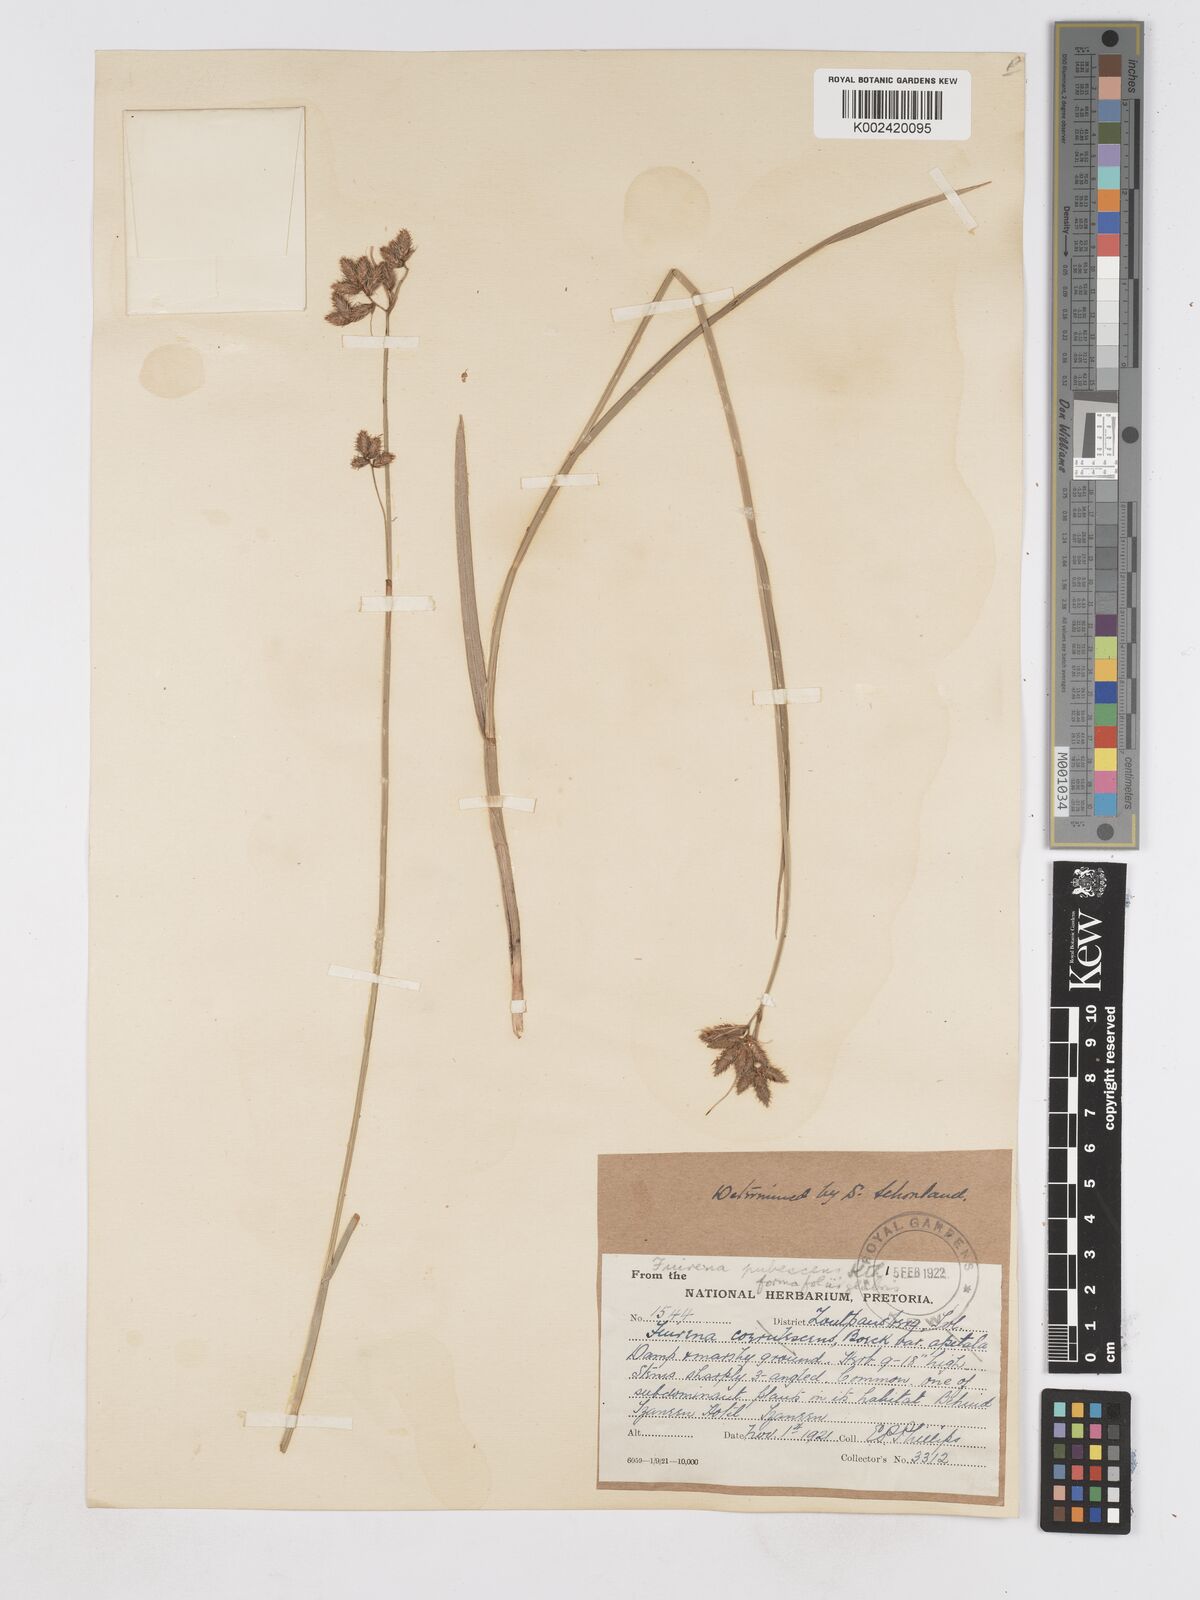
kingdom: Plantae
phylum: Tracheophyta
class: Liliopsida
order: Poales
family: Cyperaceae
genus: Fuirena
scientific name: Fuirena pubescens
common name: Hairy sedge
